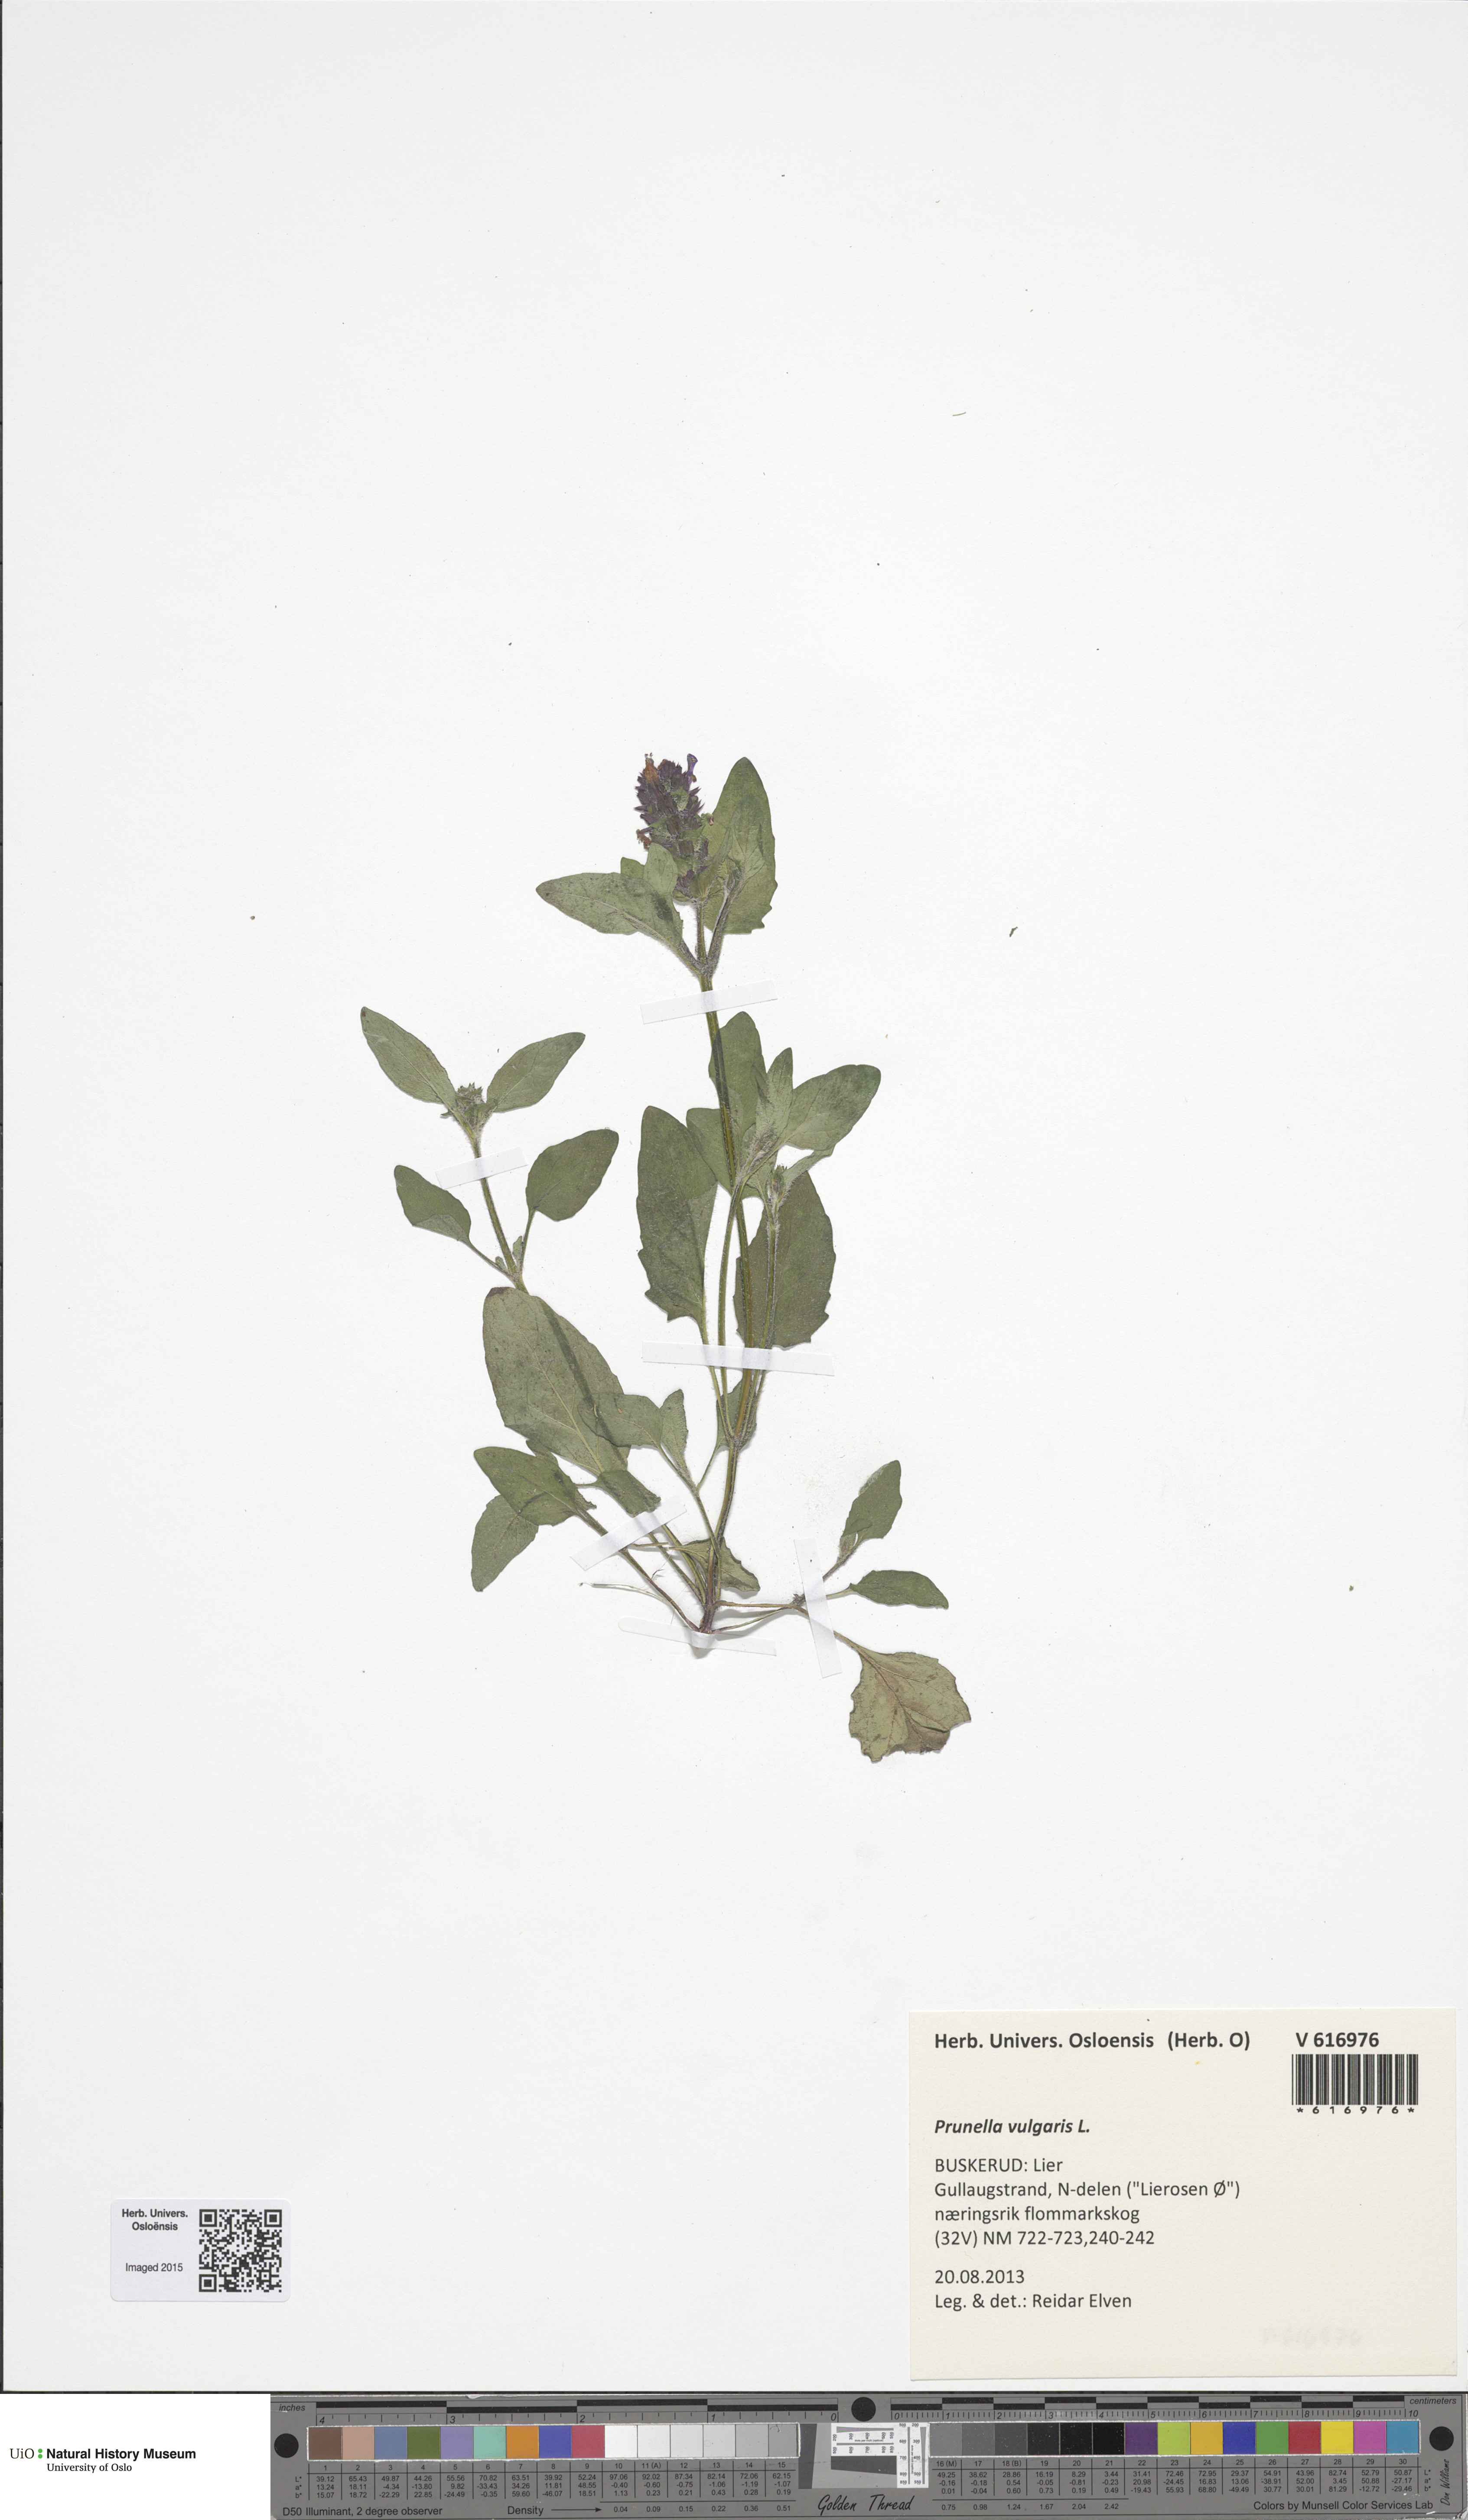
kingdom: Plantae
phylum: Tracheophyta
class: Magnoliopsida
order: Lamiales
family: Lamiaceae
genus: Prunella
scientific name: Prunella vulgaris
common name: Heal-all
